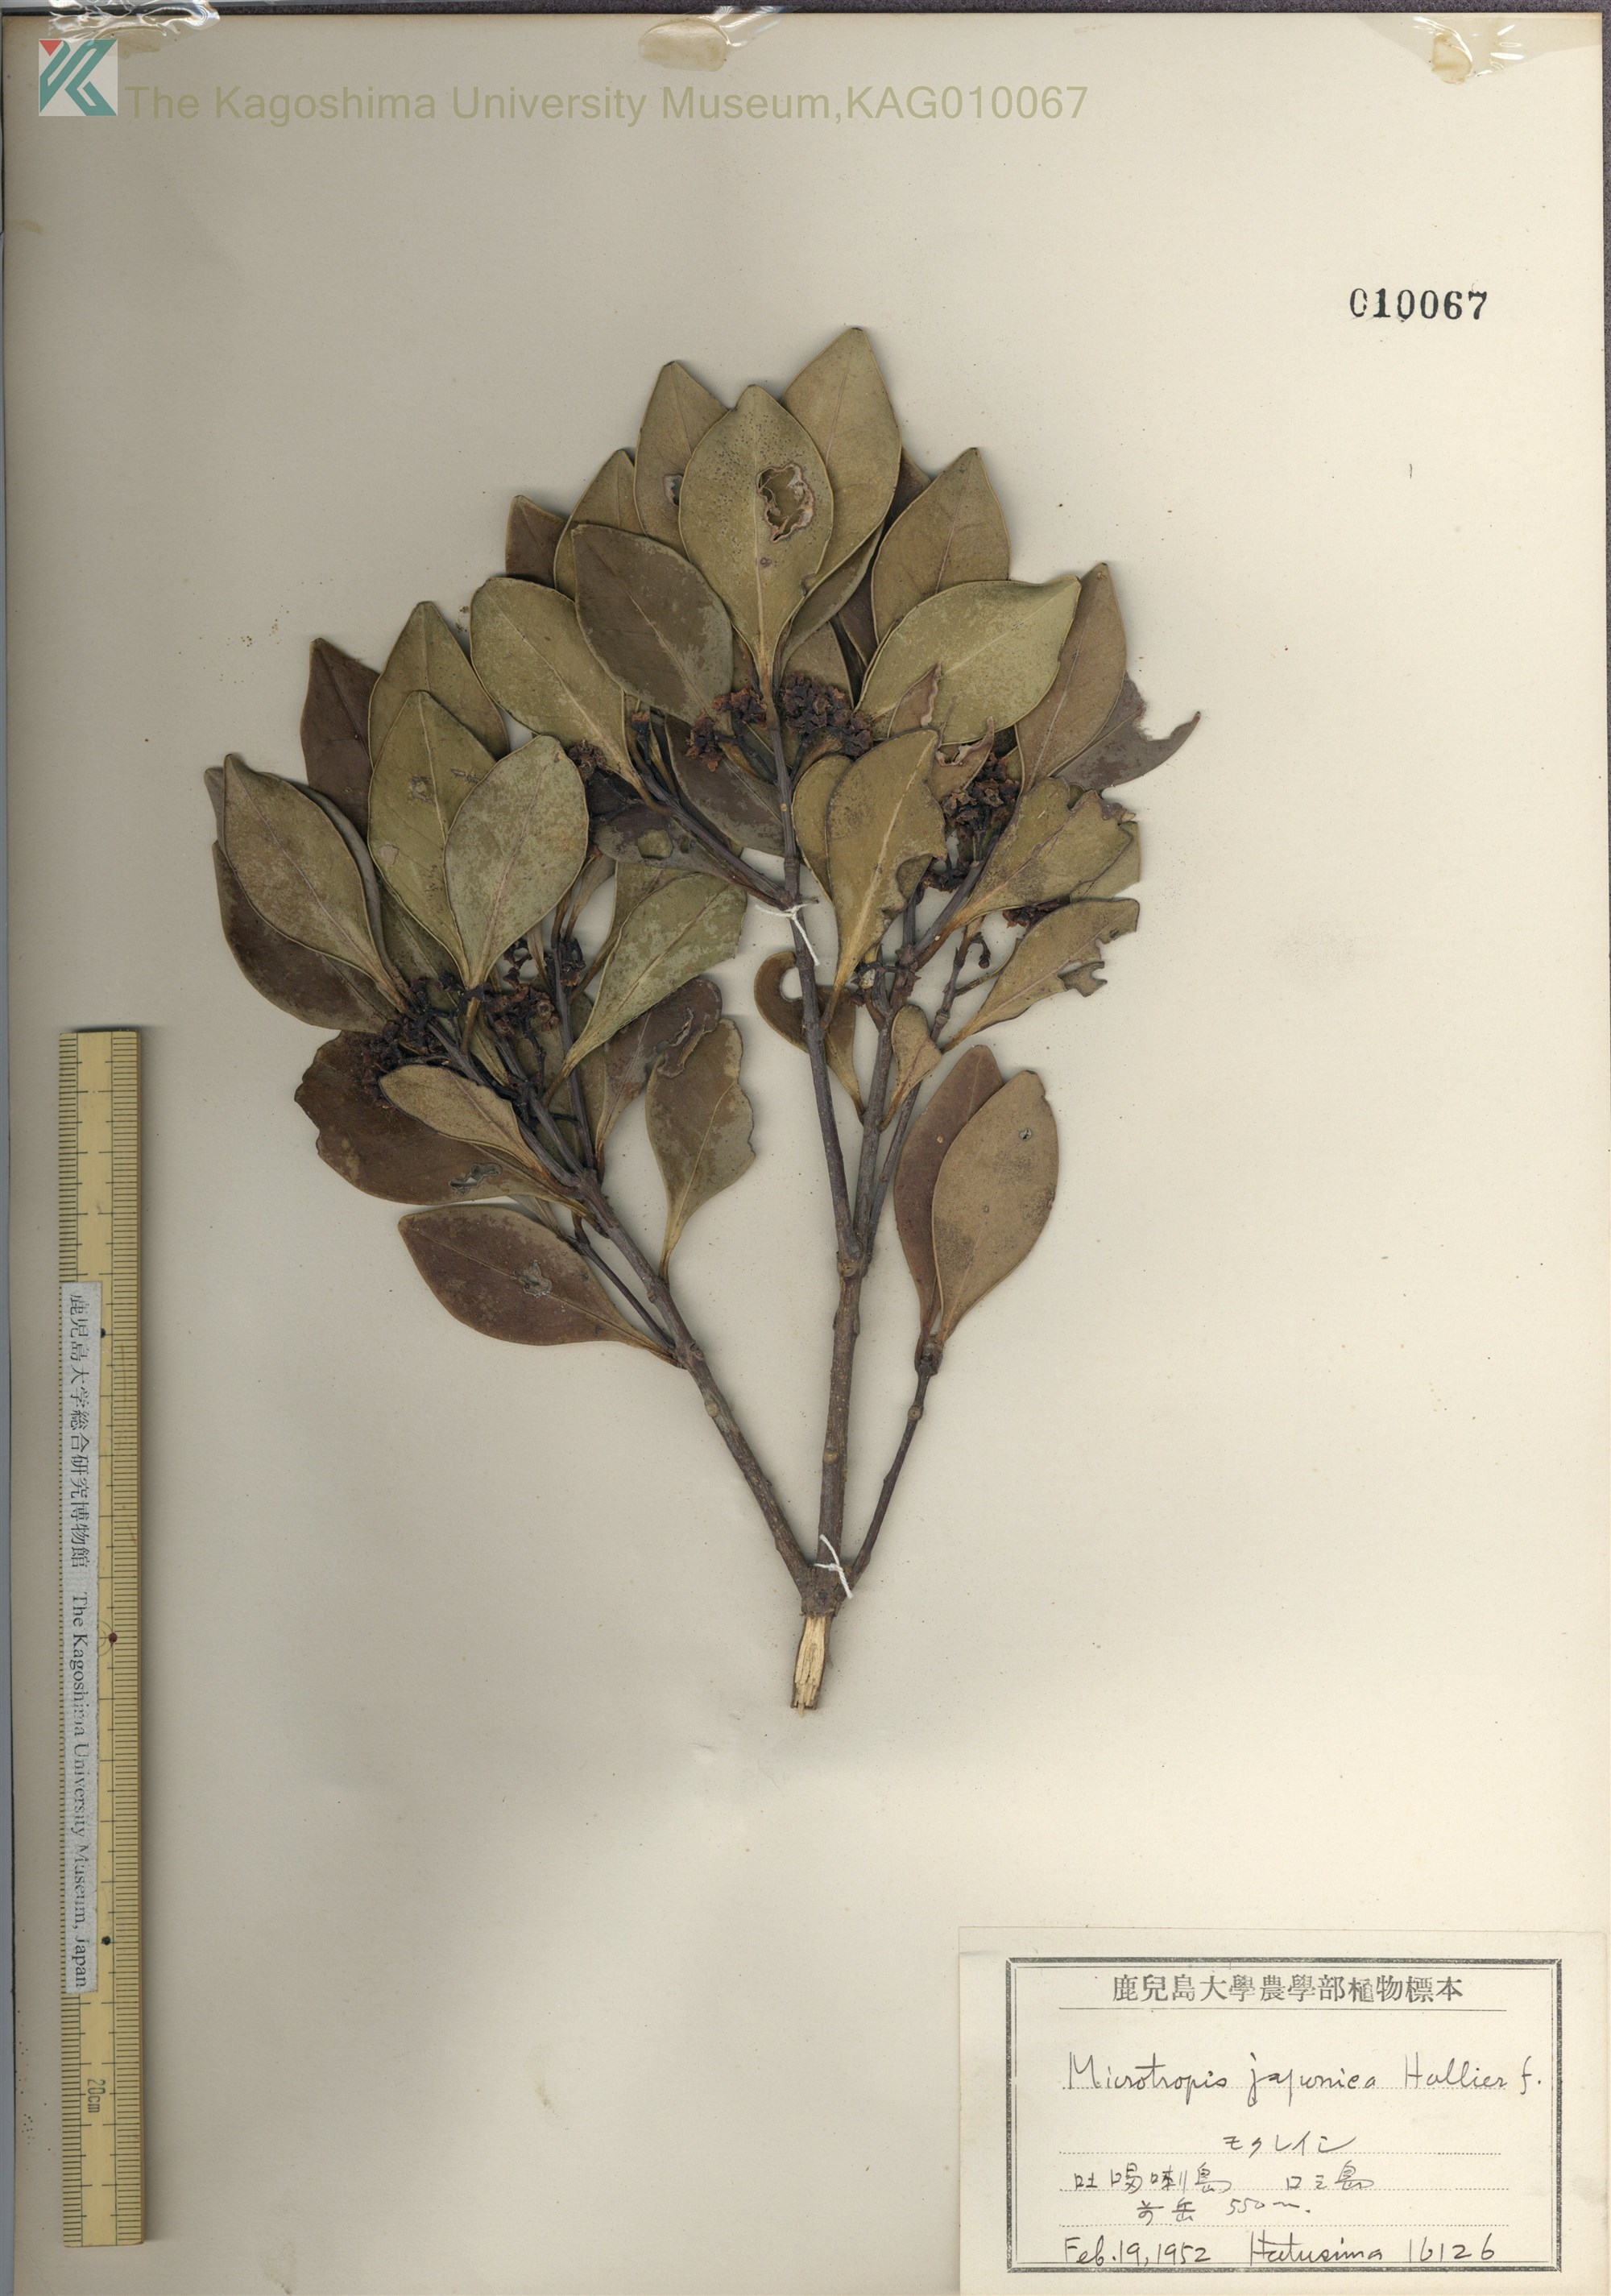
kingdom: Plantae
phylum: Tracheophyta
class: Magnoliopsida
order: Celastrales
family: Celastraceae
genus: Microtropis
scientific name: Microtropis japonica
